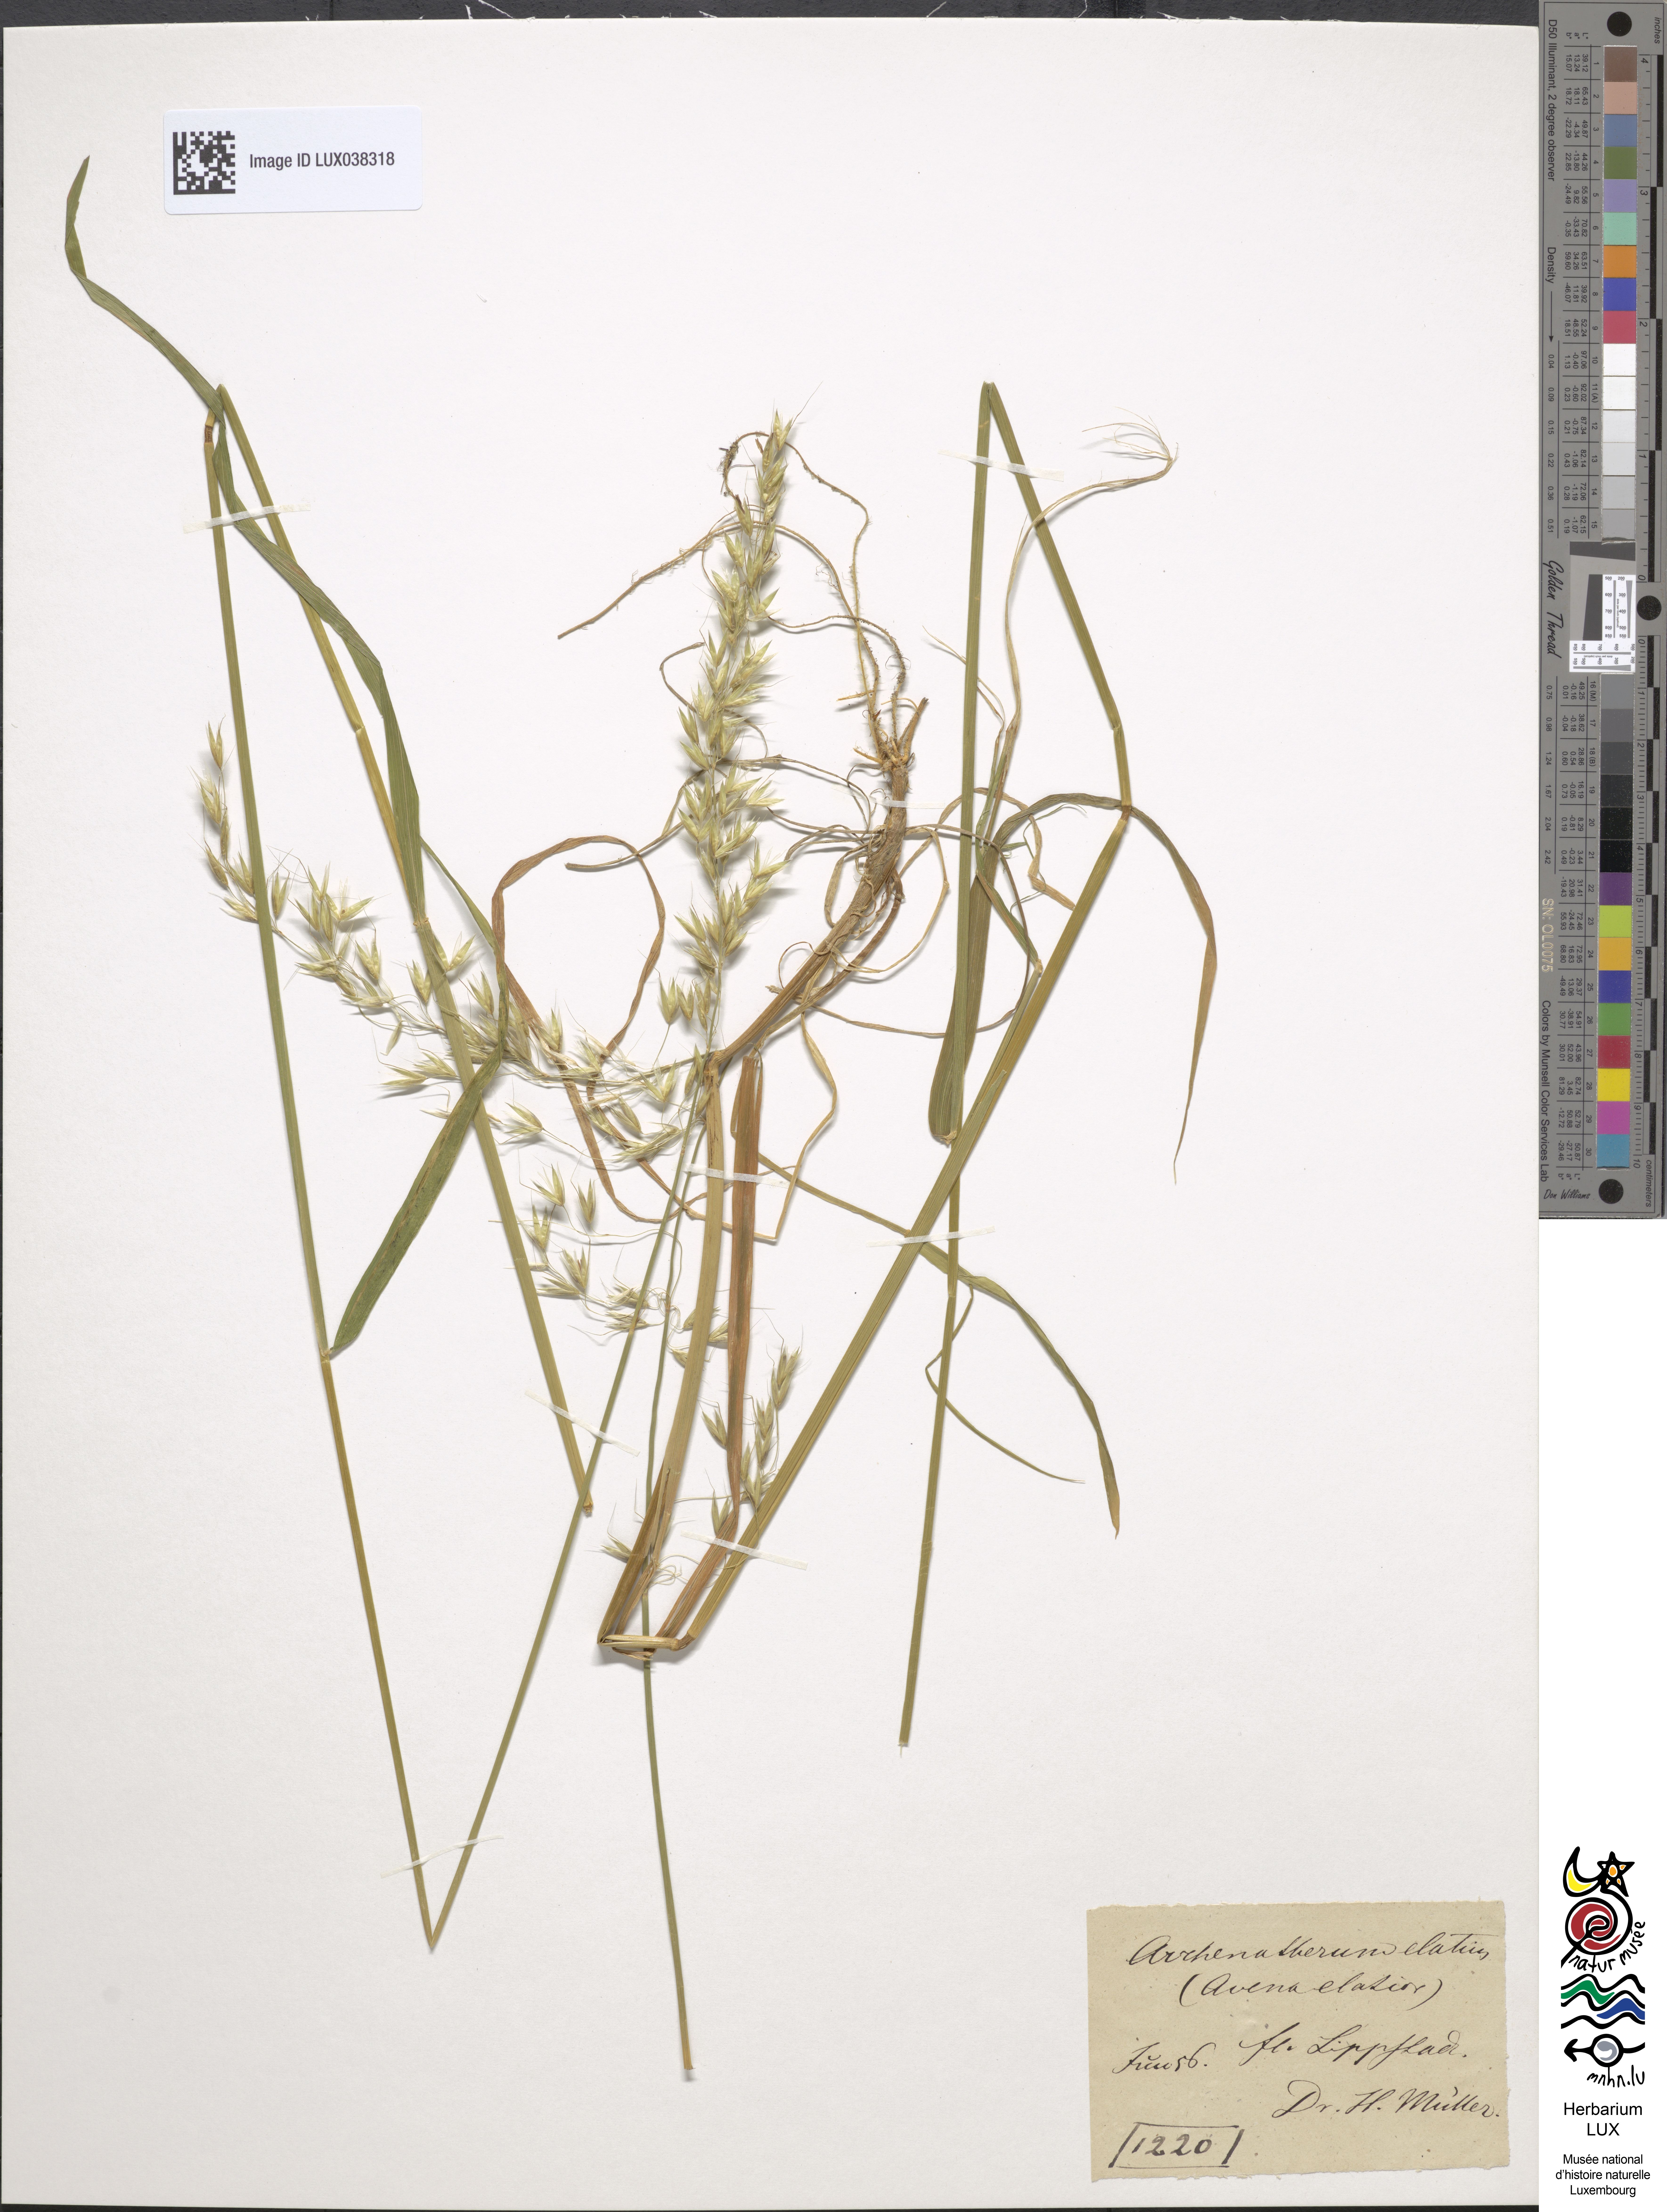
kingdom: Plantae
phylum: Tracheophyta
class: Liliopsida
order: Poales
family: Poaceae
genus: Arrhenatherum
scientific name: Arrhenatherum elatius
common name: Tall oatgrass
